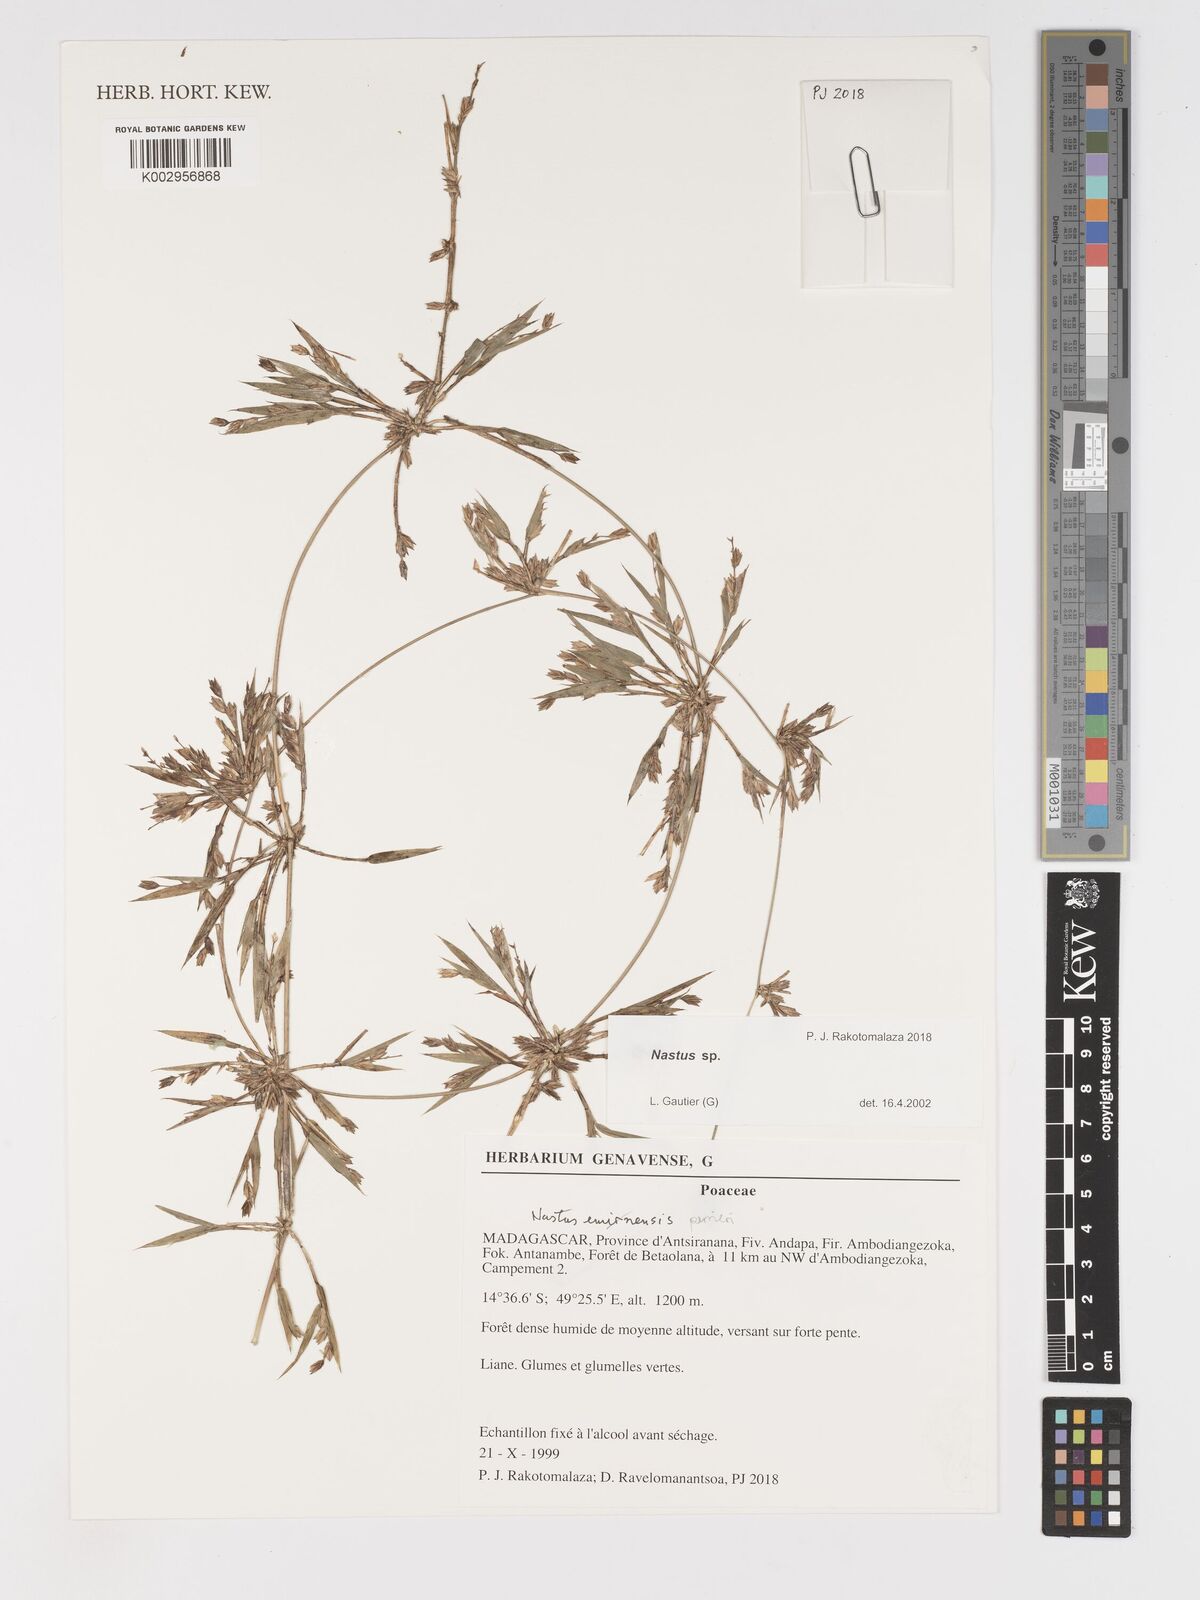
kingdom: Plantae
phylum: Tracheophyta
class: Liliopsida
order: Poales
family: Poaceae
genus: Nastus
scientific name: Nastus perrieri
